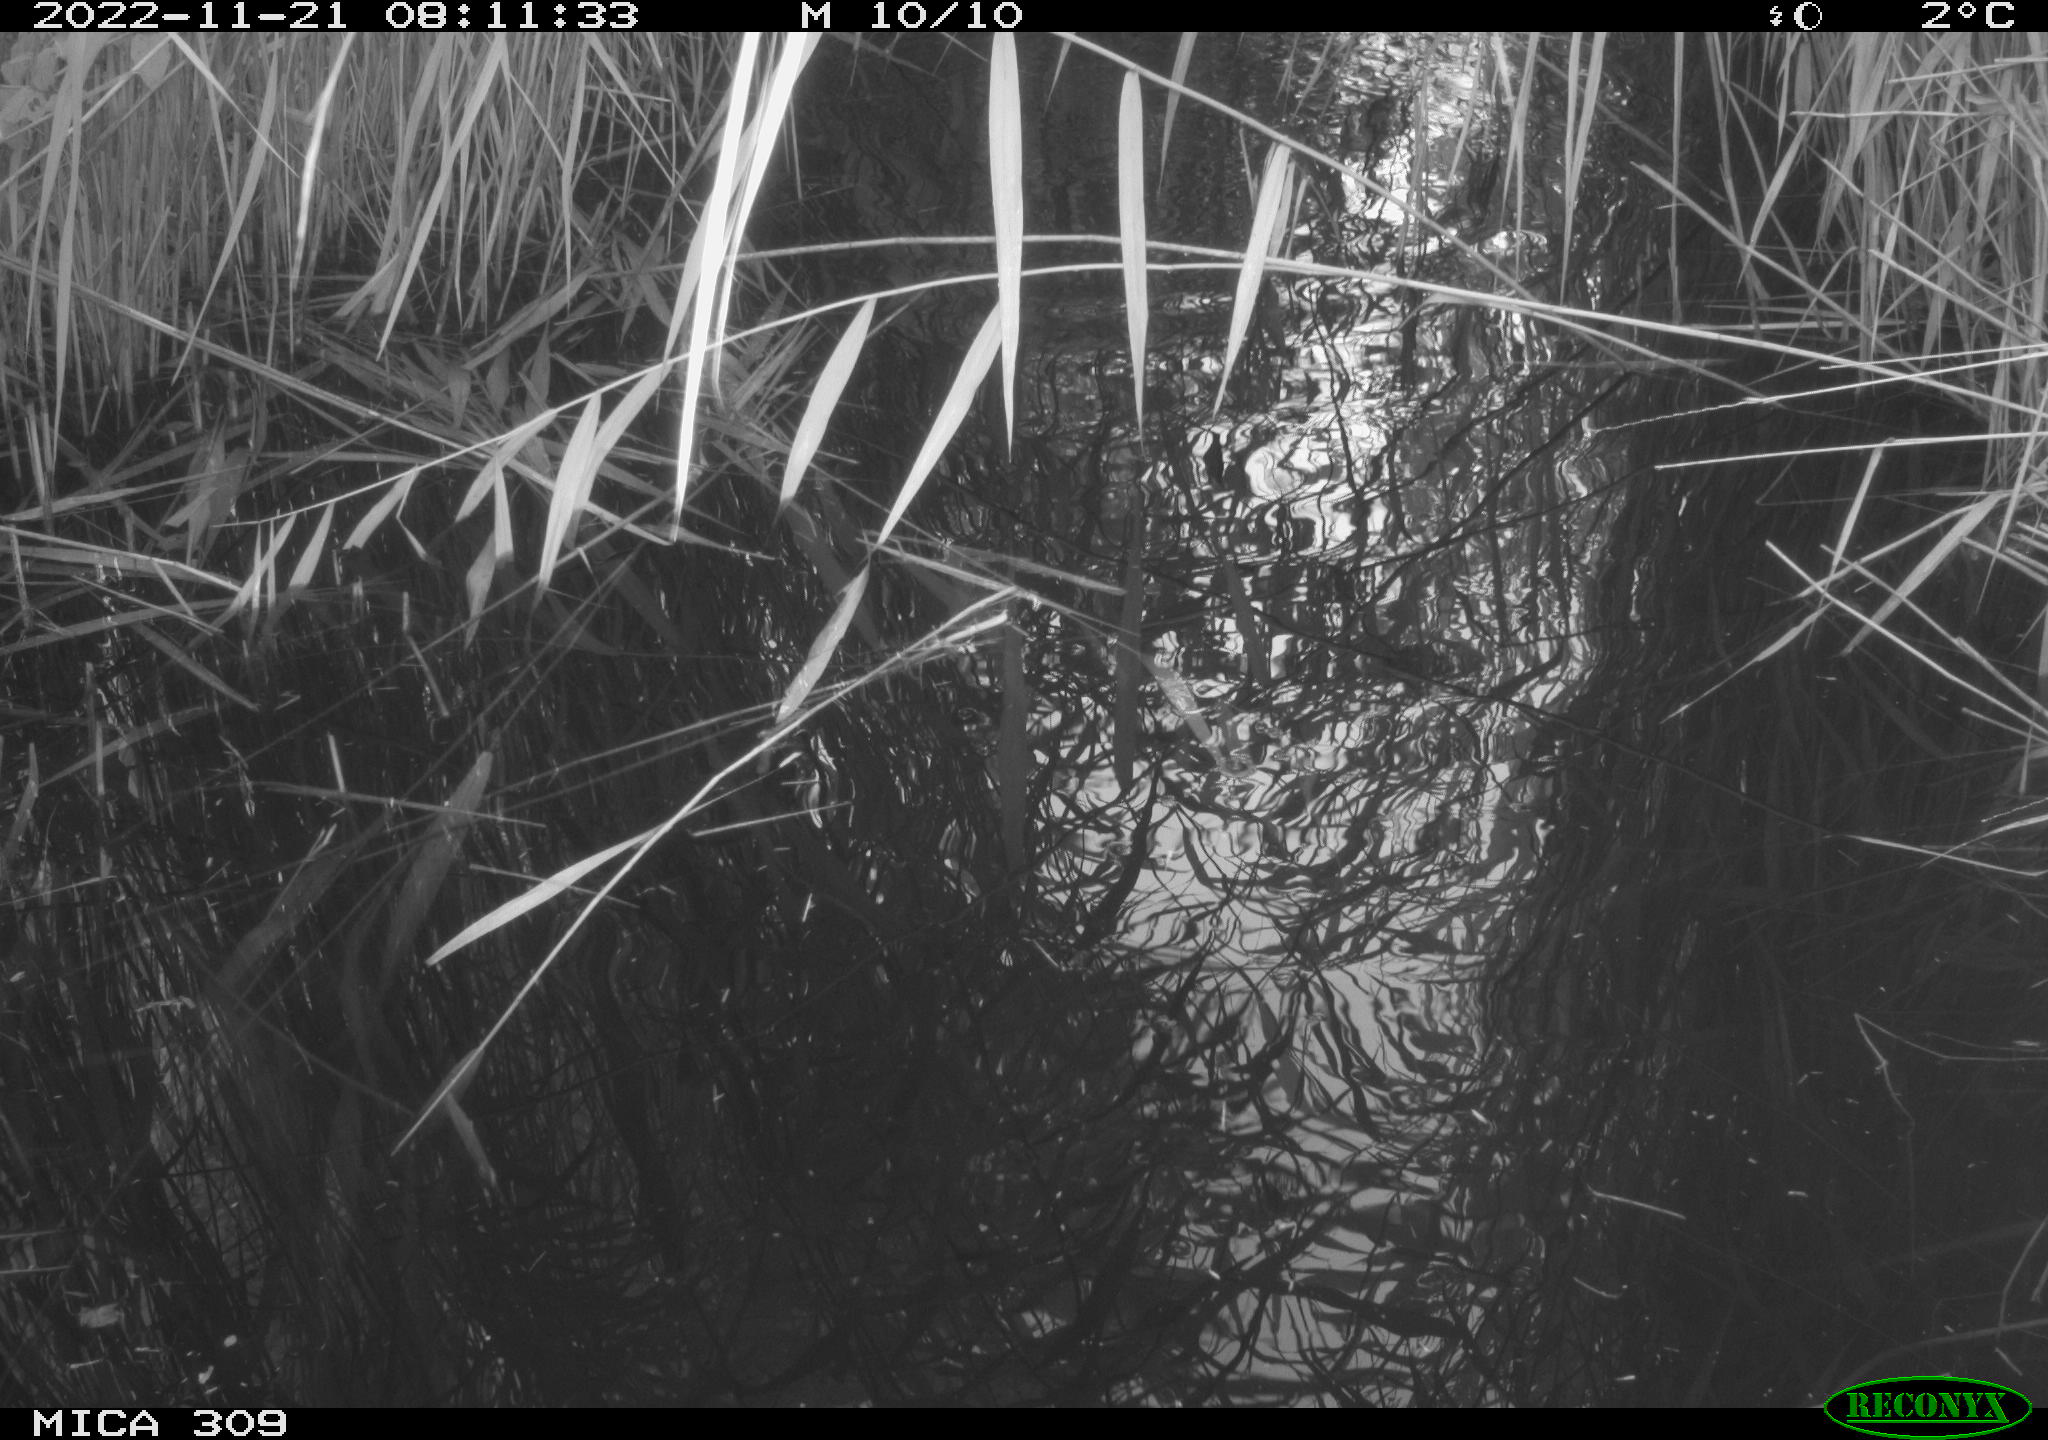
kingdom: Animalia
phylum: Chordata
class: Aves
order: Anseriformes
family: Anatidae
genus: Anas
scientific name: Anas
